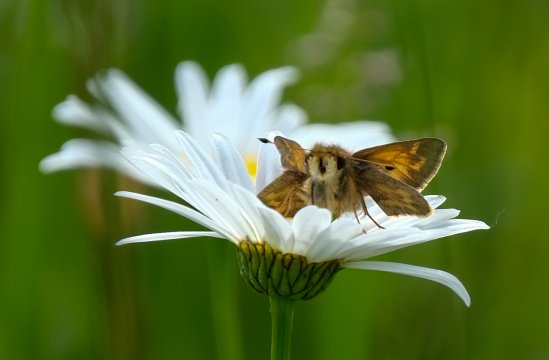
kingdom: Animalia
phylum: Arthropoda
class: Insecta
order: Lepidoptera
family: Hesperiidae
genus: Atalopedes
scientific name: Atalopedes campestris
